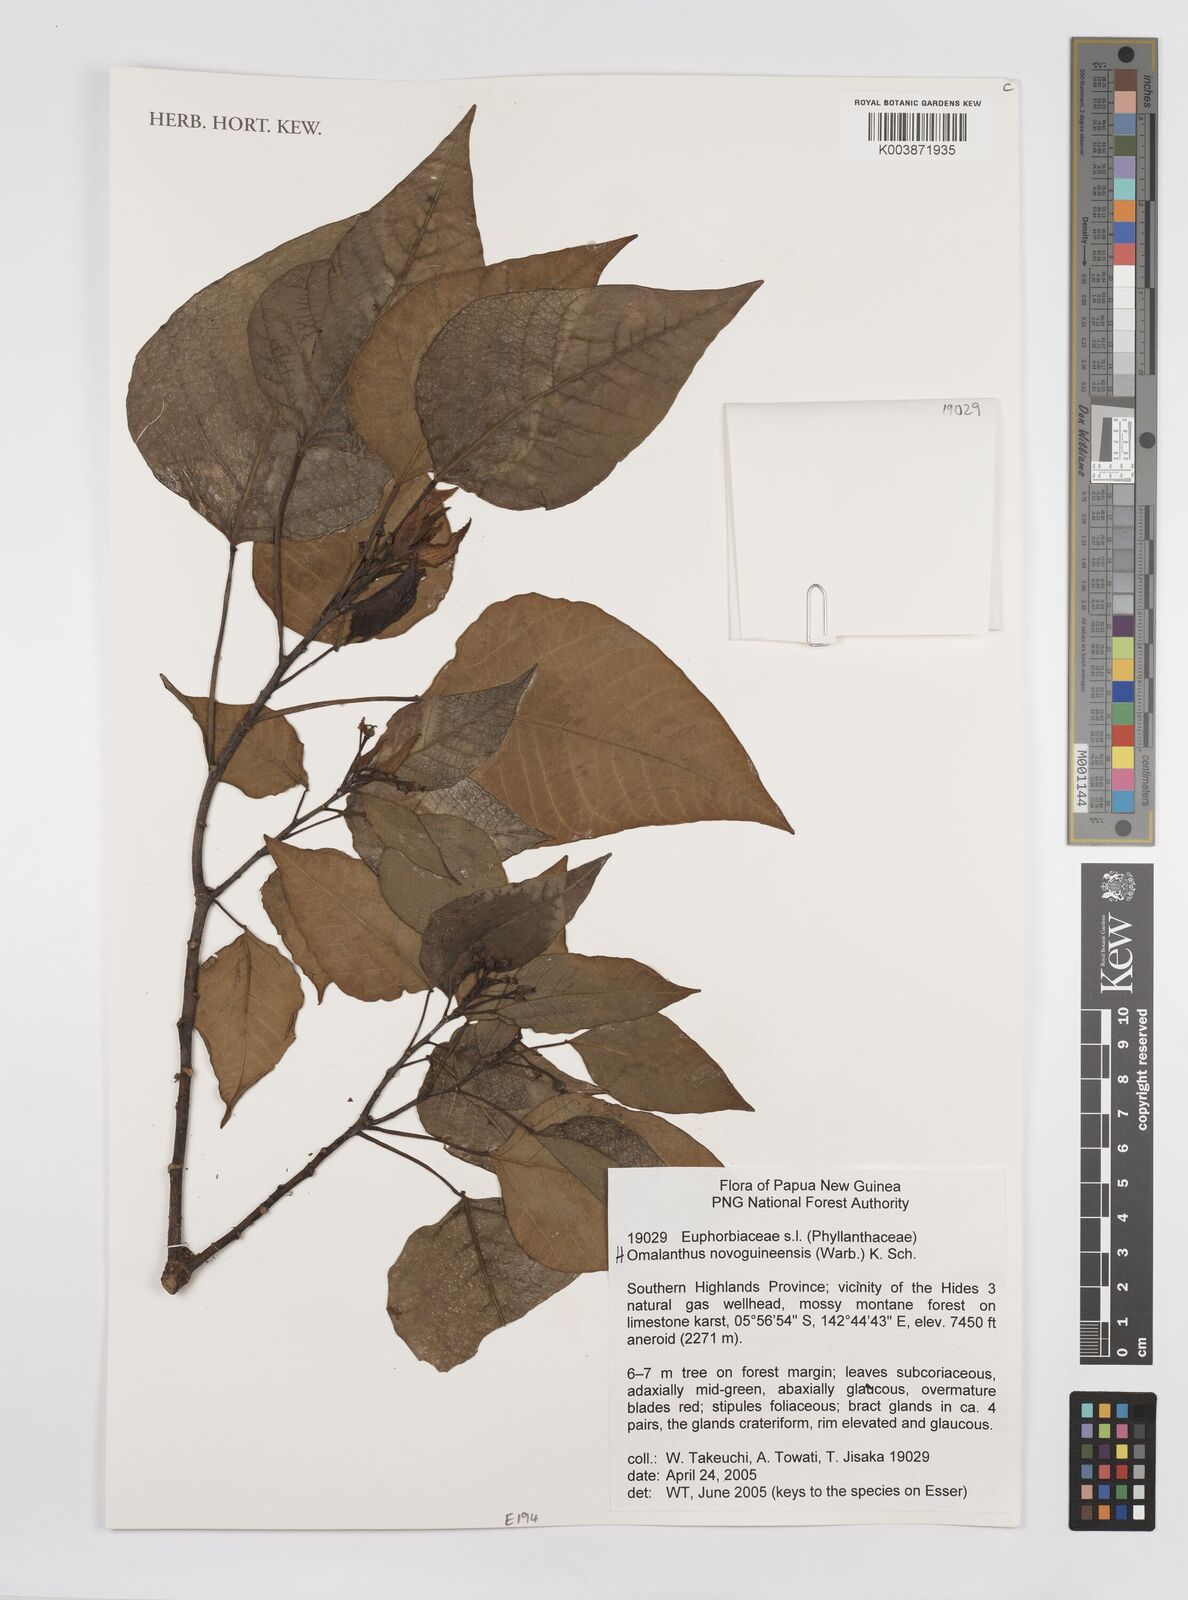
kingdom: Plantae
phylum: Tracheophyta
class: Magnoliopsida
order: Malpighiales
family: Euphorbiaceae
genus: Homalanthus
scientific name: Homalanthus novoguineensis
